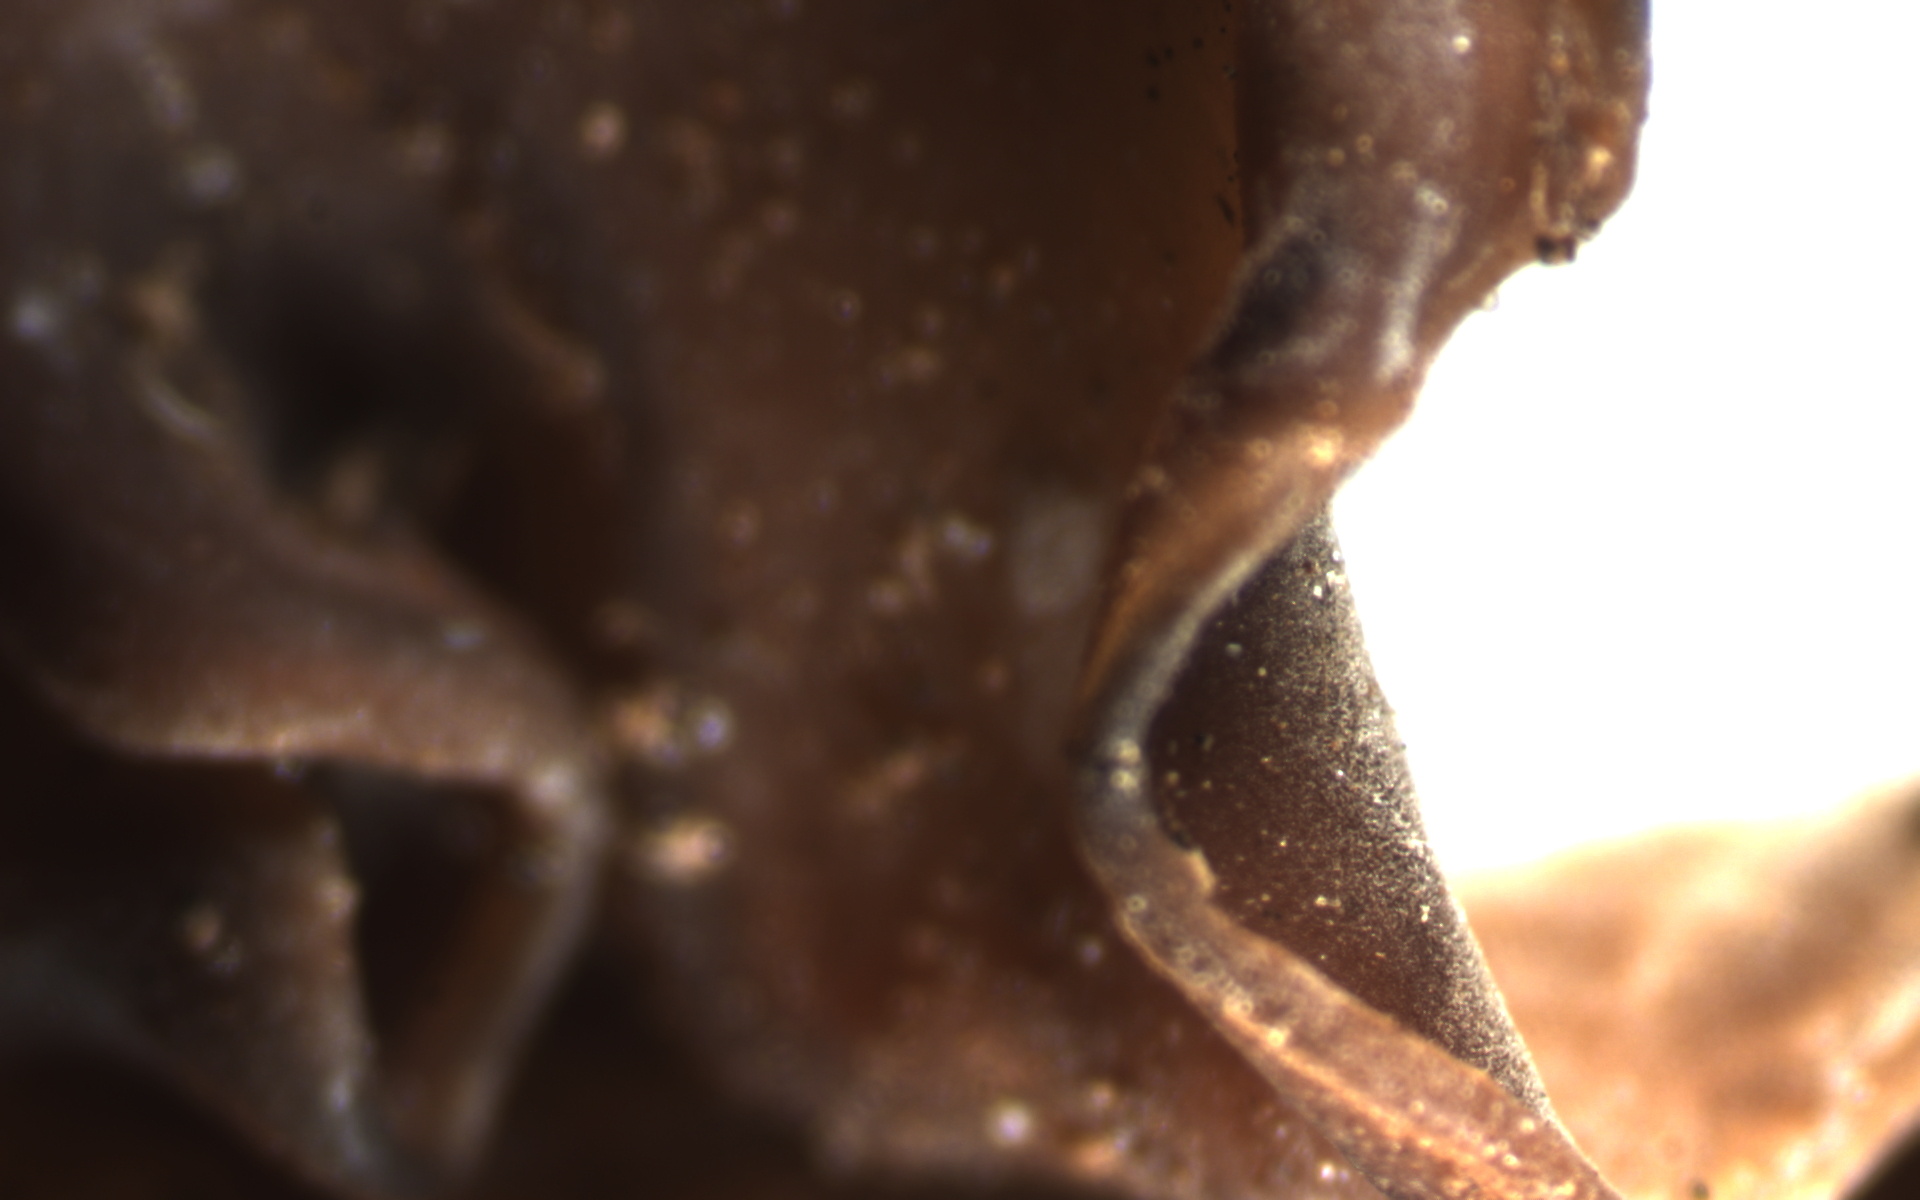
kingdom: Fungi
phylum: Basidiomycota
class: Dacrymycetes
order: Dacrymycetales
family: Dacrymycetaceae
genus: Dacryopinax
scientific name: Dacryopinax indacocheae
